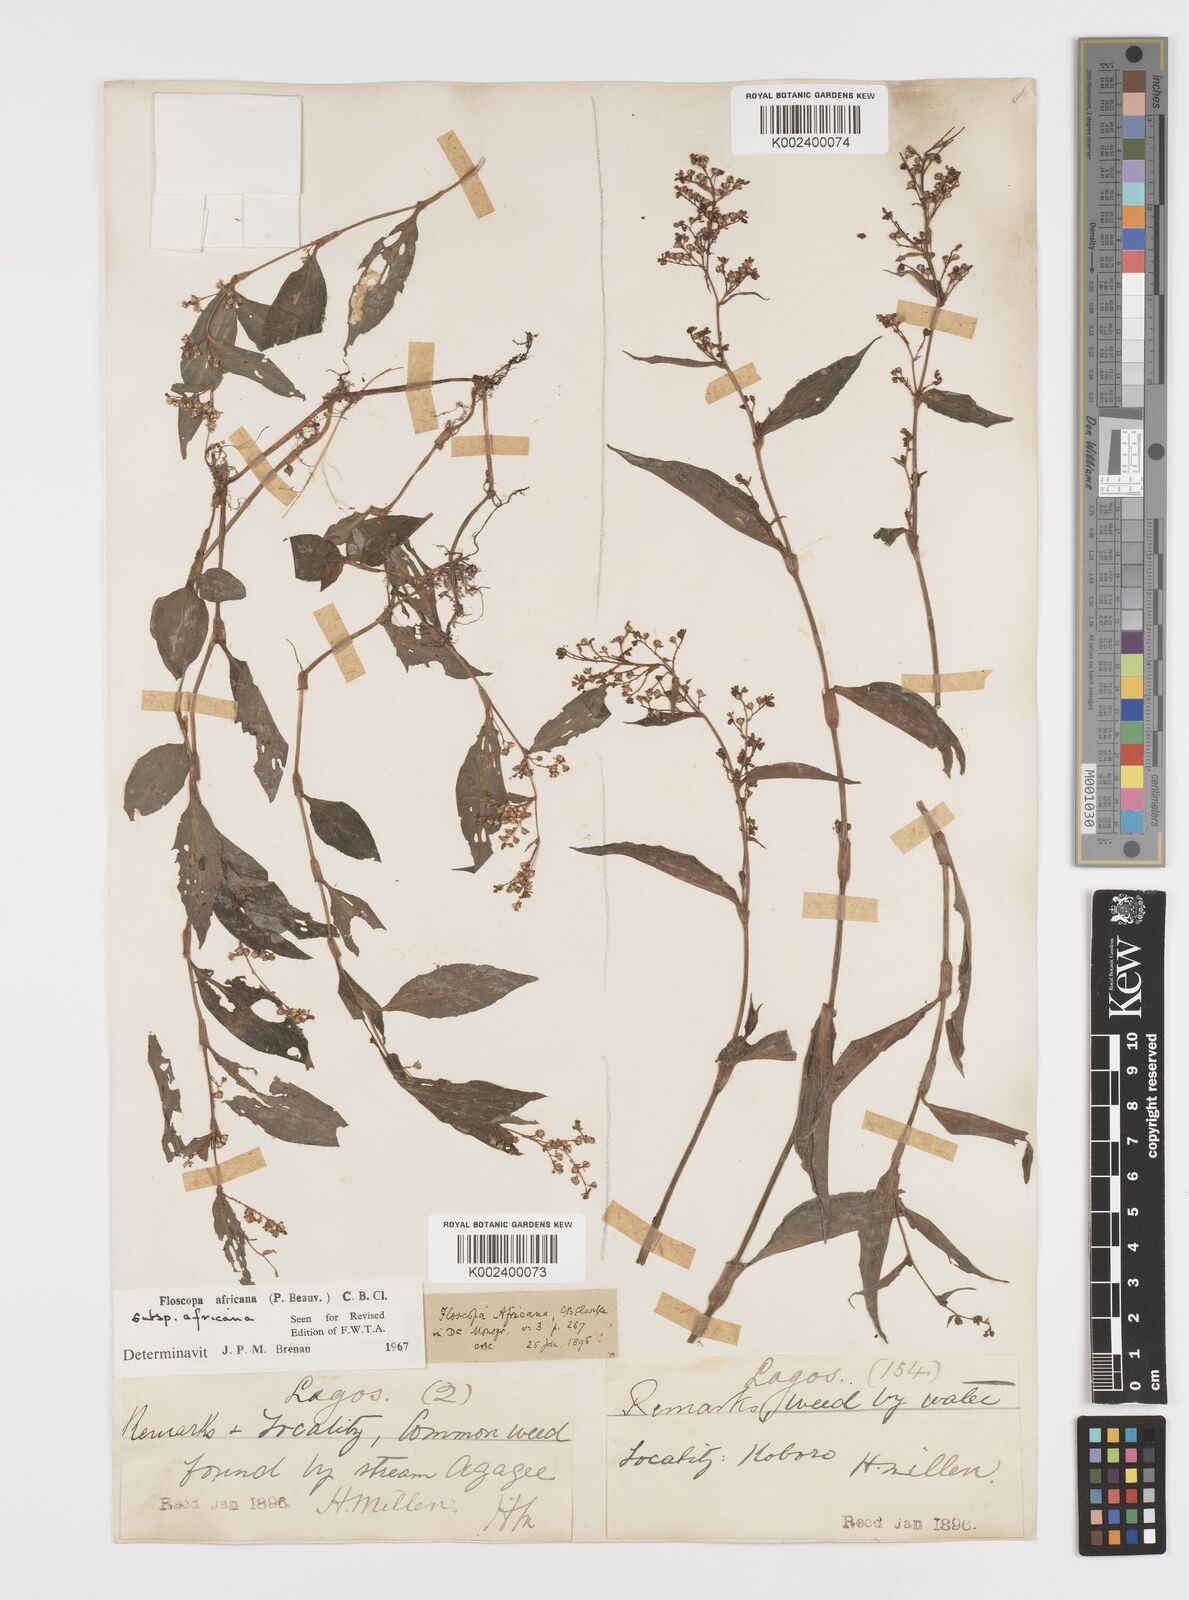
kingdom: Plantae
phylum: Tracheophyta
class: Liliopsida
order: Commelinales
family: Commelinaceae
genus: Floscopa
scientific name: Floscopa africana
